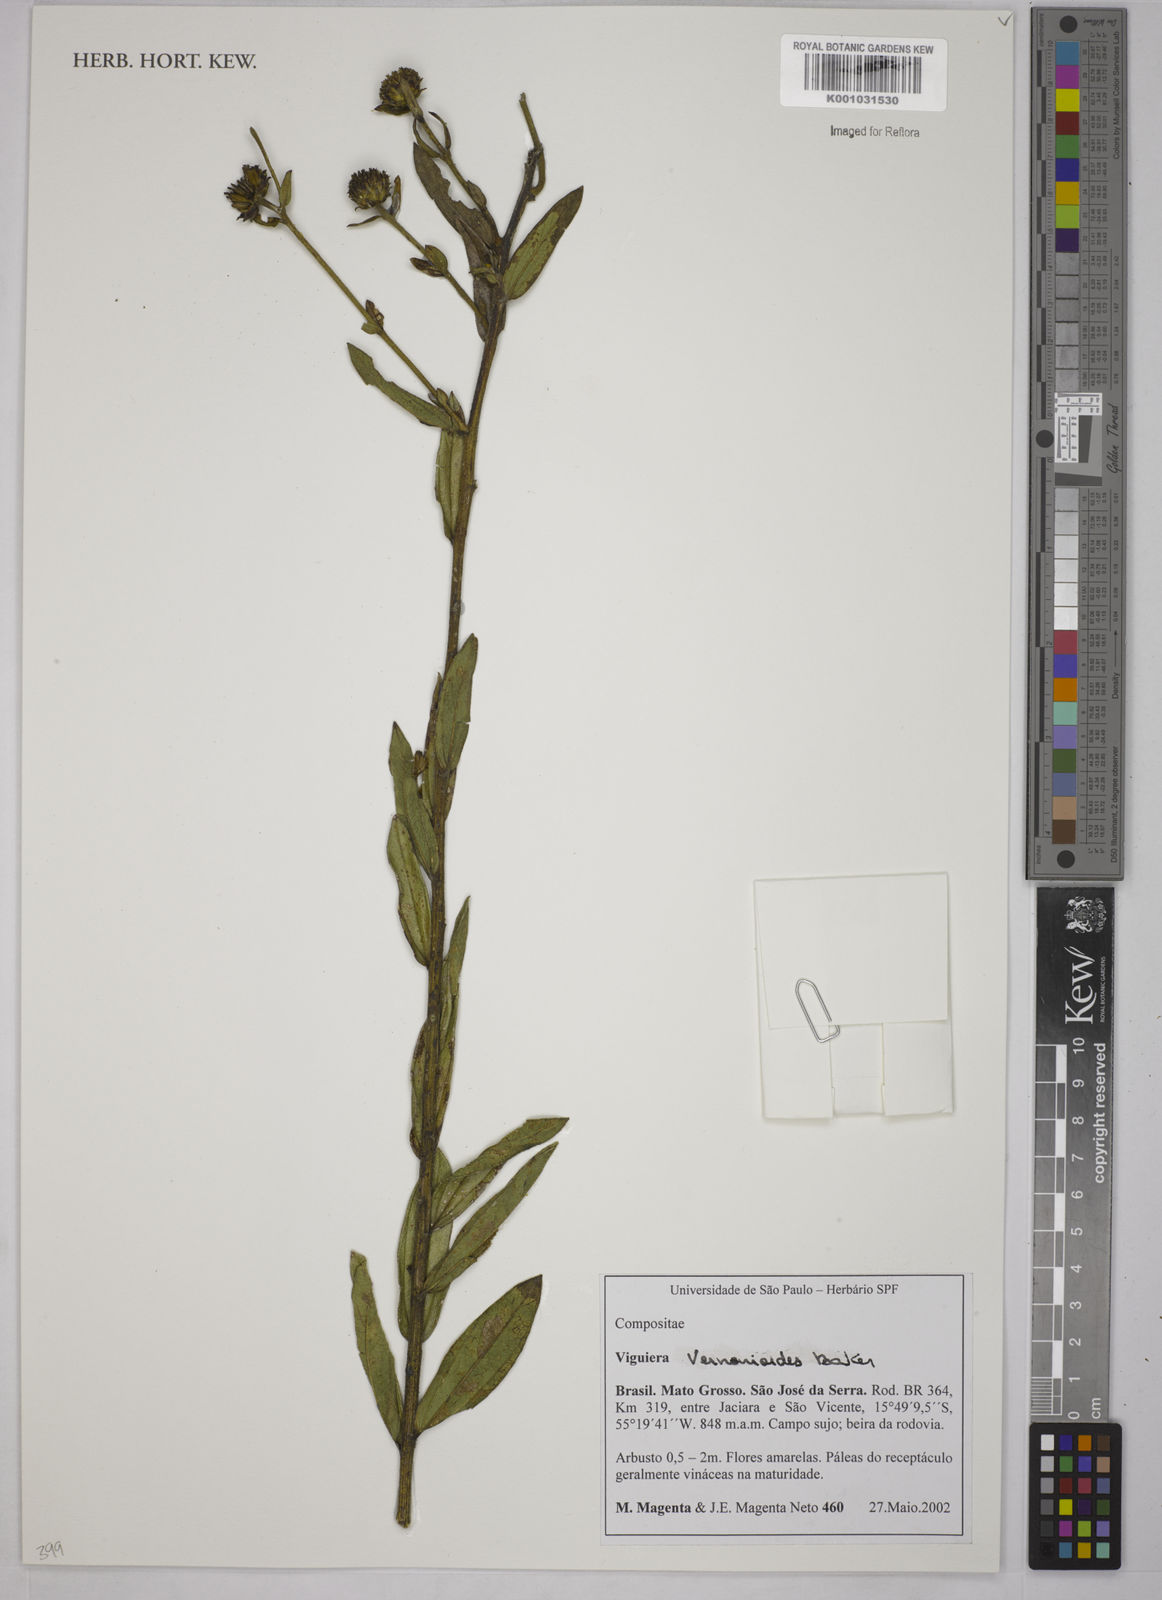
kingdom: Plantae
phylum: Tracheophyta
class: Magnoliopsida
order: Asterales
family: Asteraceae
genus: Aldama
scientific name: Aldama vernonioides
